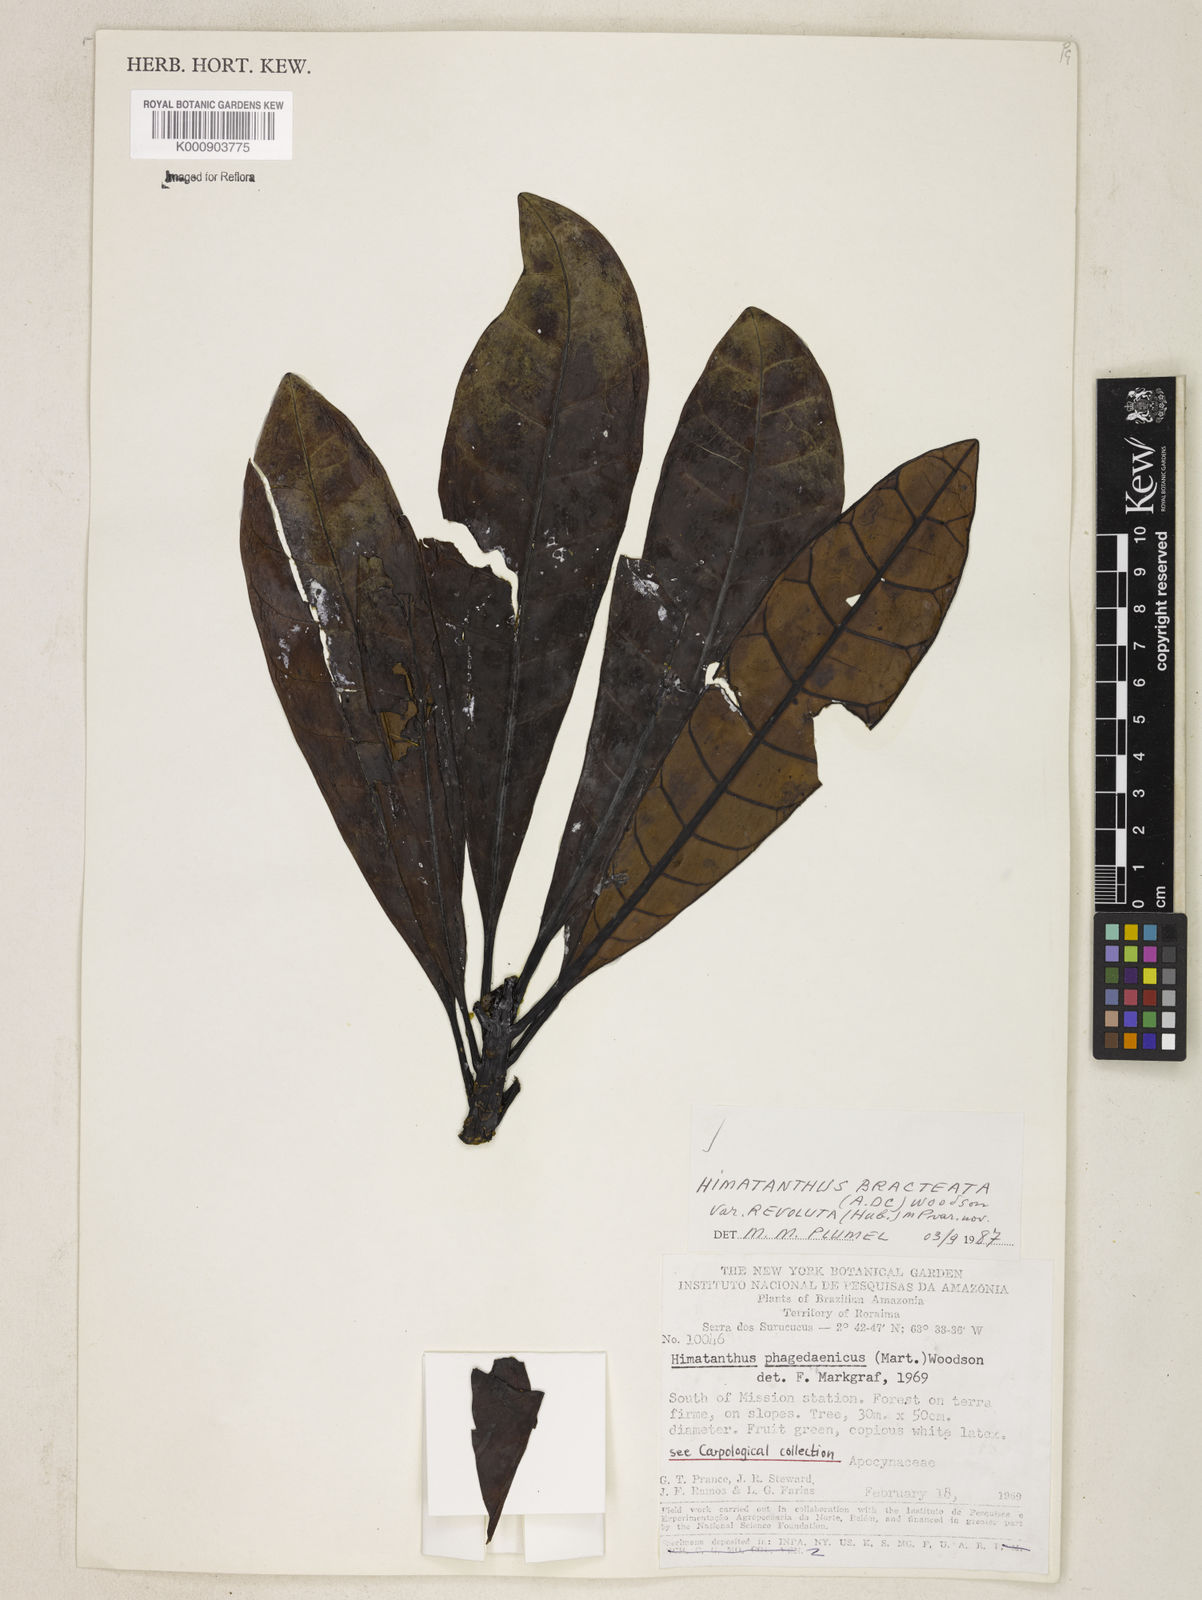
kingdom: Plantae
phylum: Tracheophyta
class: Magnoliopsida
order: Gentianales
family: Apocynaceae
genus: Himatanthus
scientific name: Himatanthus
